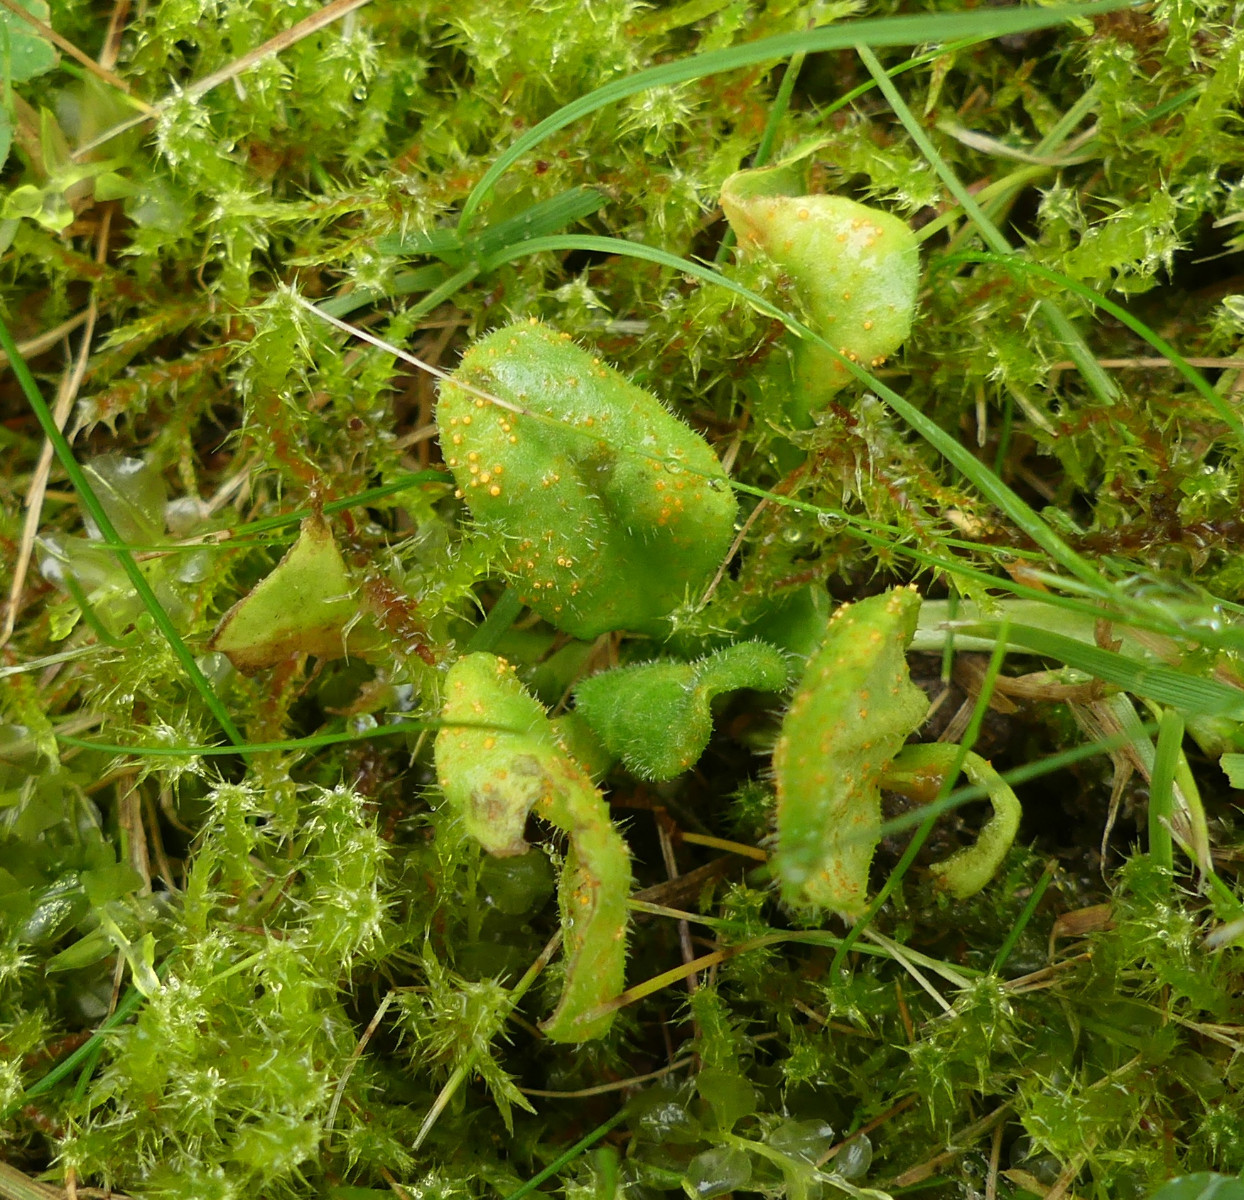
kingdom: Fungi
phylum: Basidiomycota
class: Pucciniomycetes
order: Pucciniales
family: Pucciniaceae
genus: Puccinia
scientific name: Puccinia obscura
